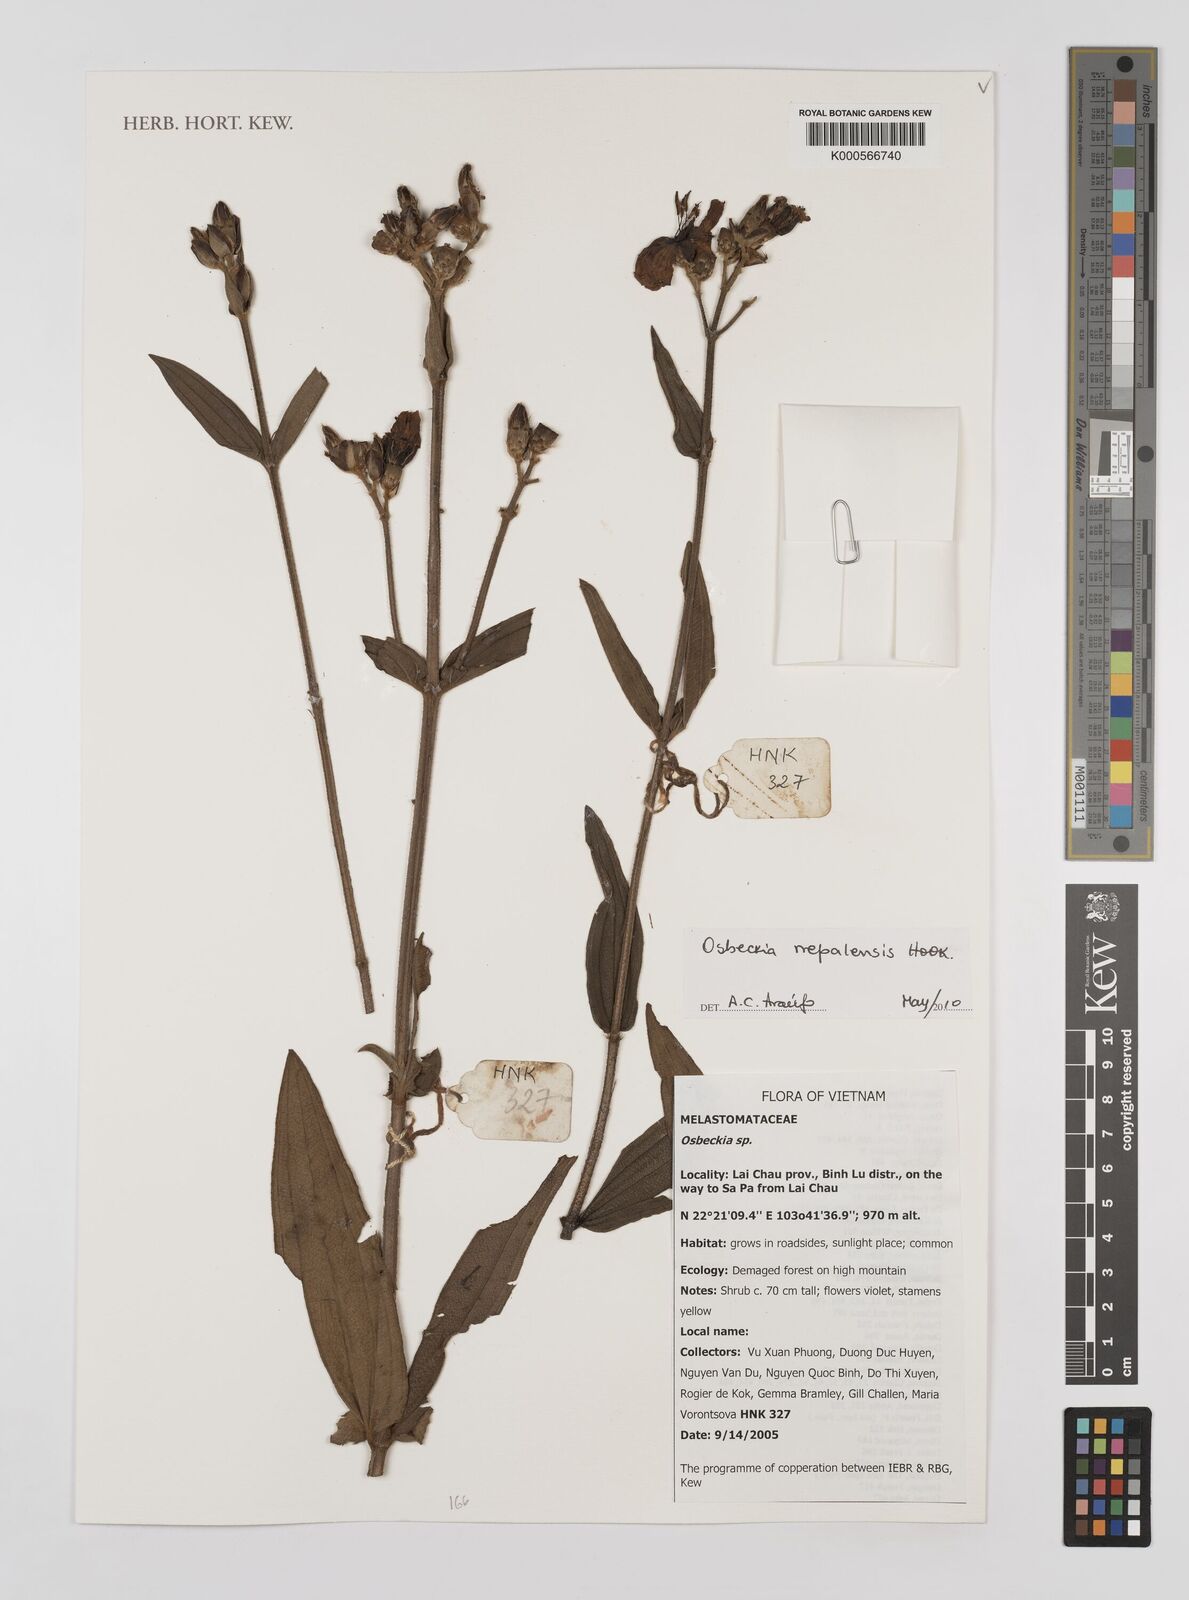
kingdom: Plantae
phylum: Tracheophyta
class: Magnoliopsida
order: Myrtales
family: Melastomataceae
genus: Osbeckia
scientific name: Osbeckia nepalensis
